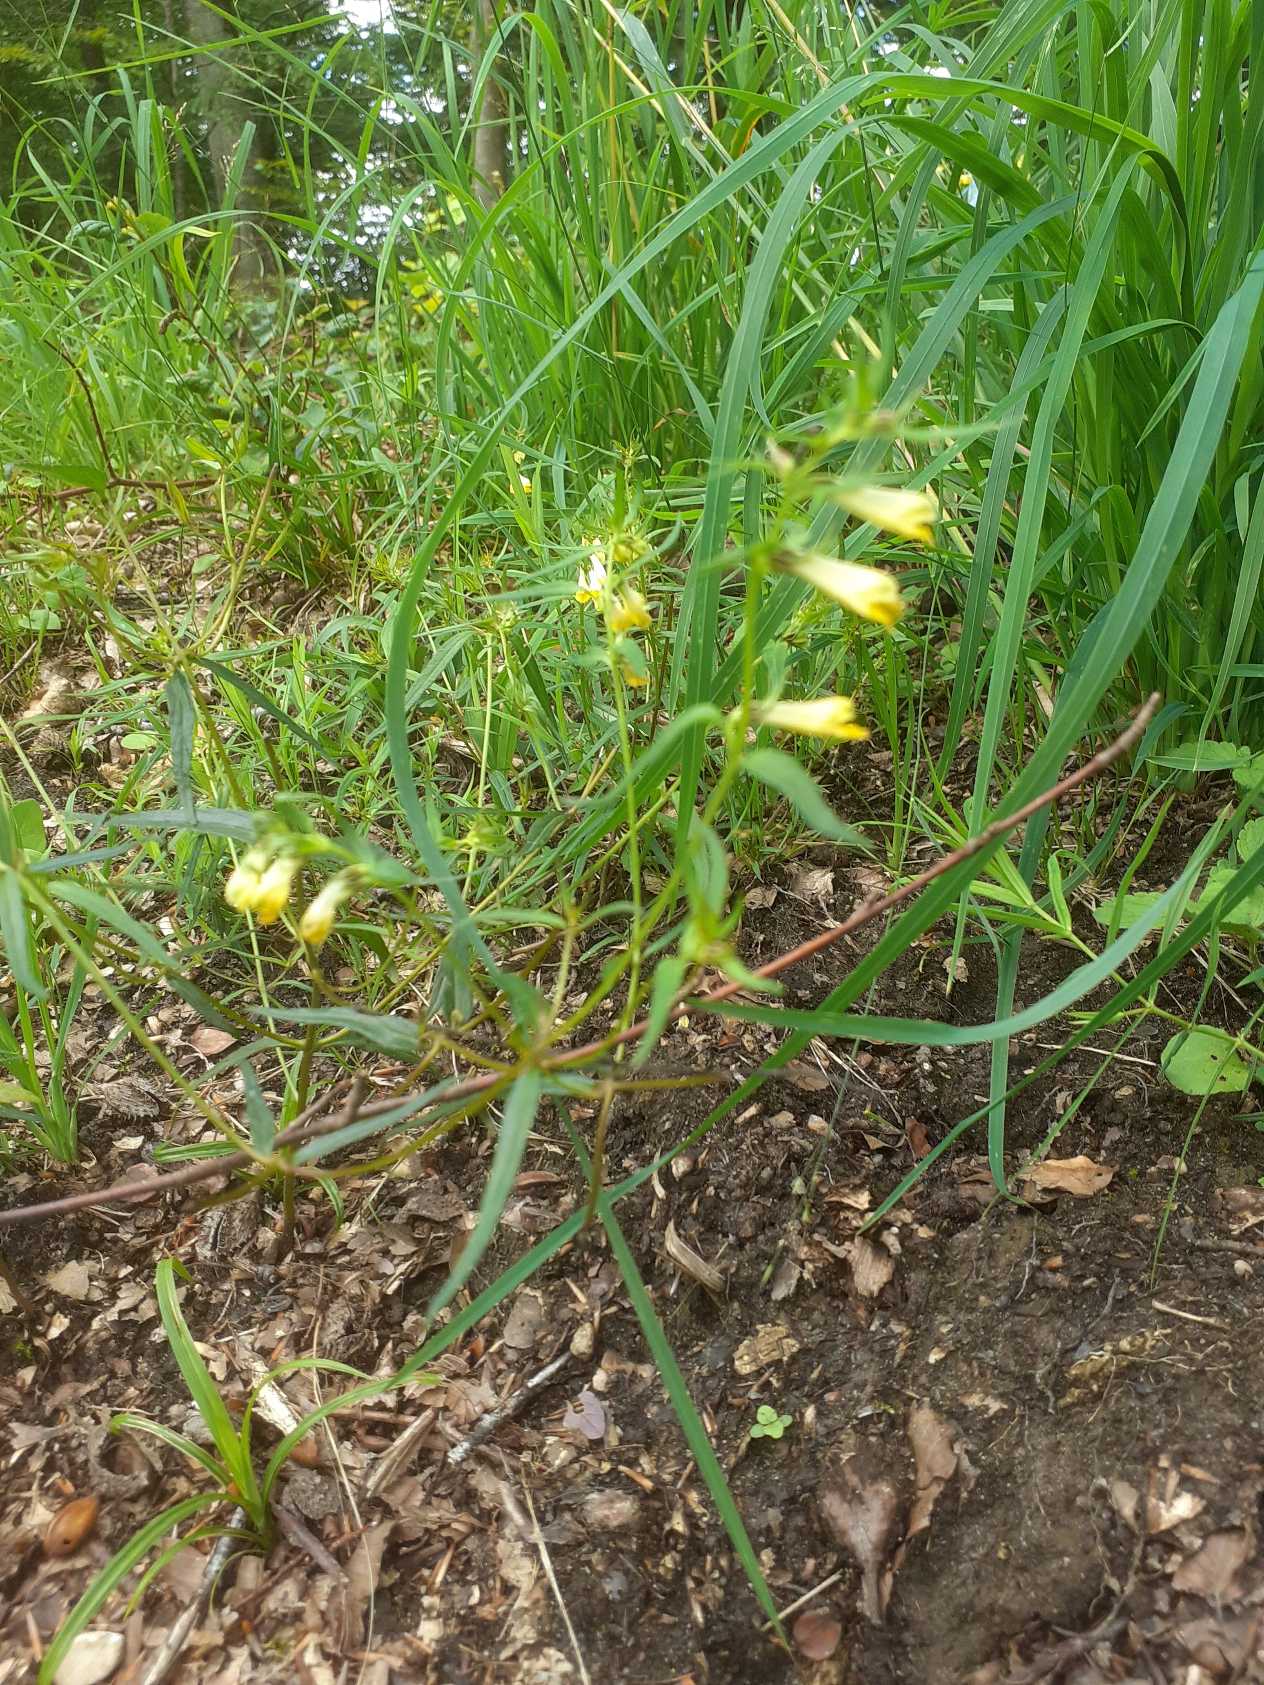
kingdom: Plantae
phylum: Tracheophyta
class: Magnoliopsida
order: Lamiales
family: Orobanchaceae
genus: Melampyrum
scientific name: Melampyrum pratense
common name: Almindelig kohvede
